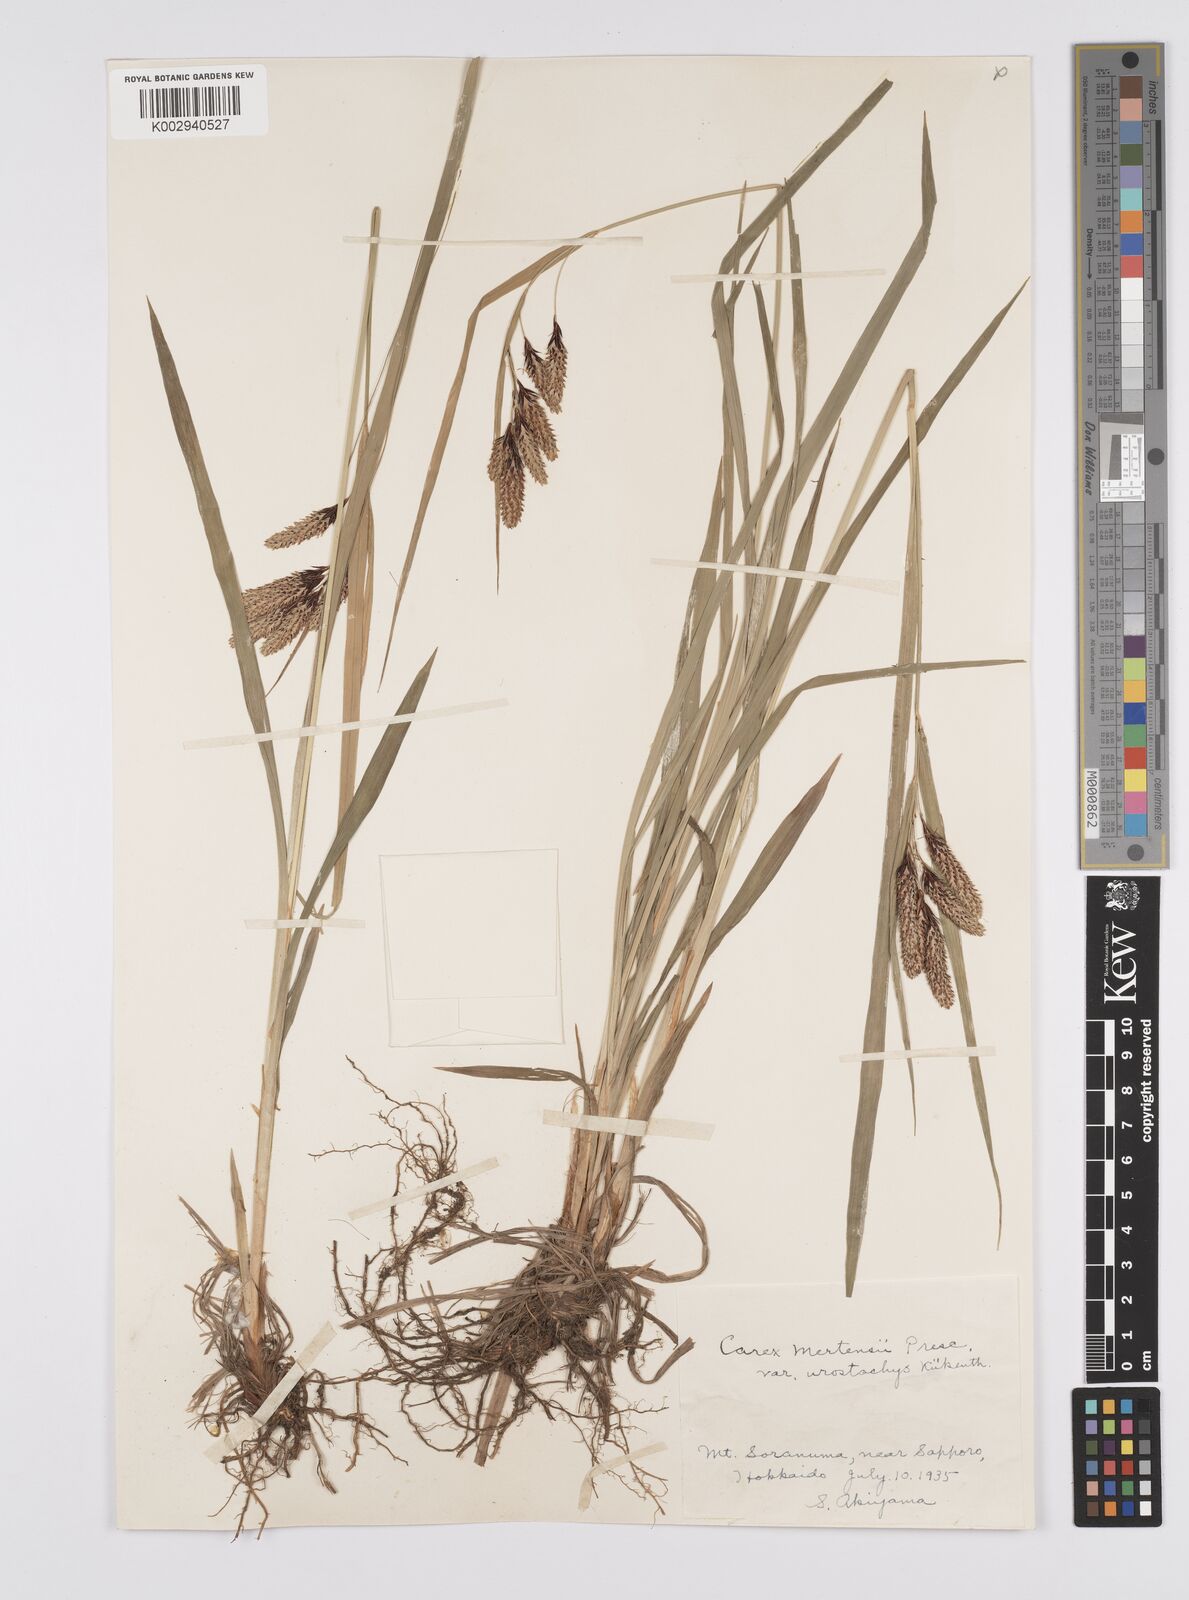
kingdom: Plantae
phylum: Tracheophyta
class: Liliopsida
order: Poales
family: Cyperaceae
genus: Carex
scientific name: Carex mertensii
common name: Mertens' sedge
